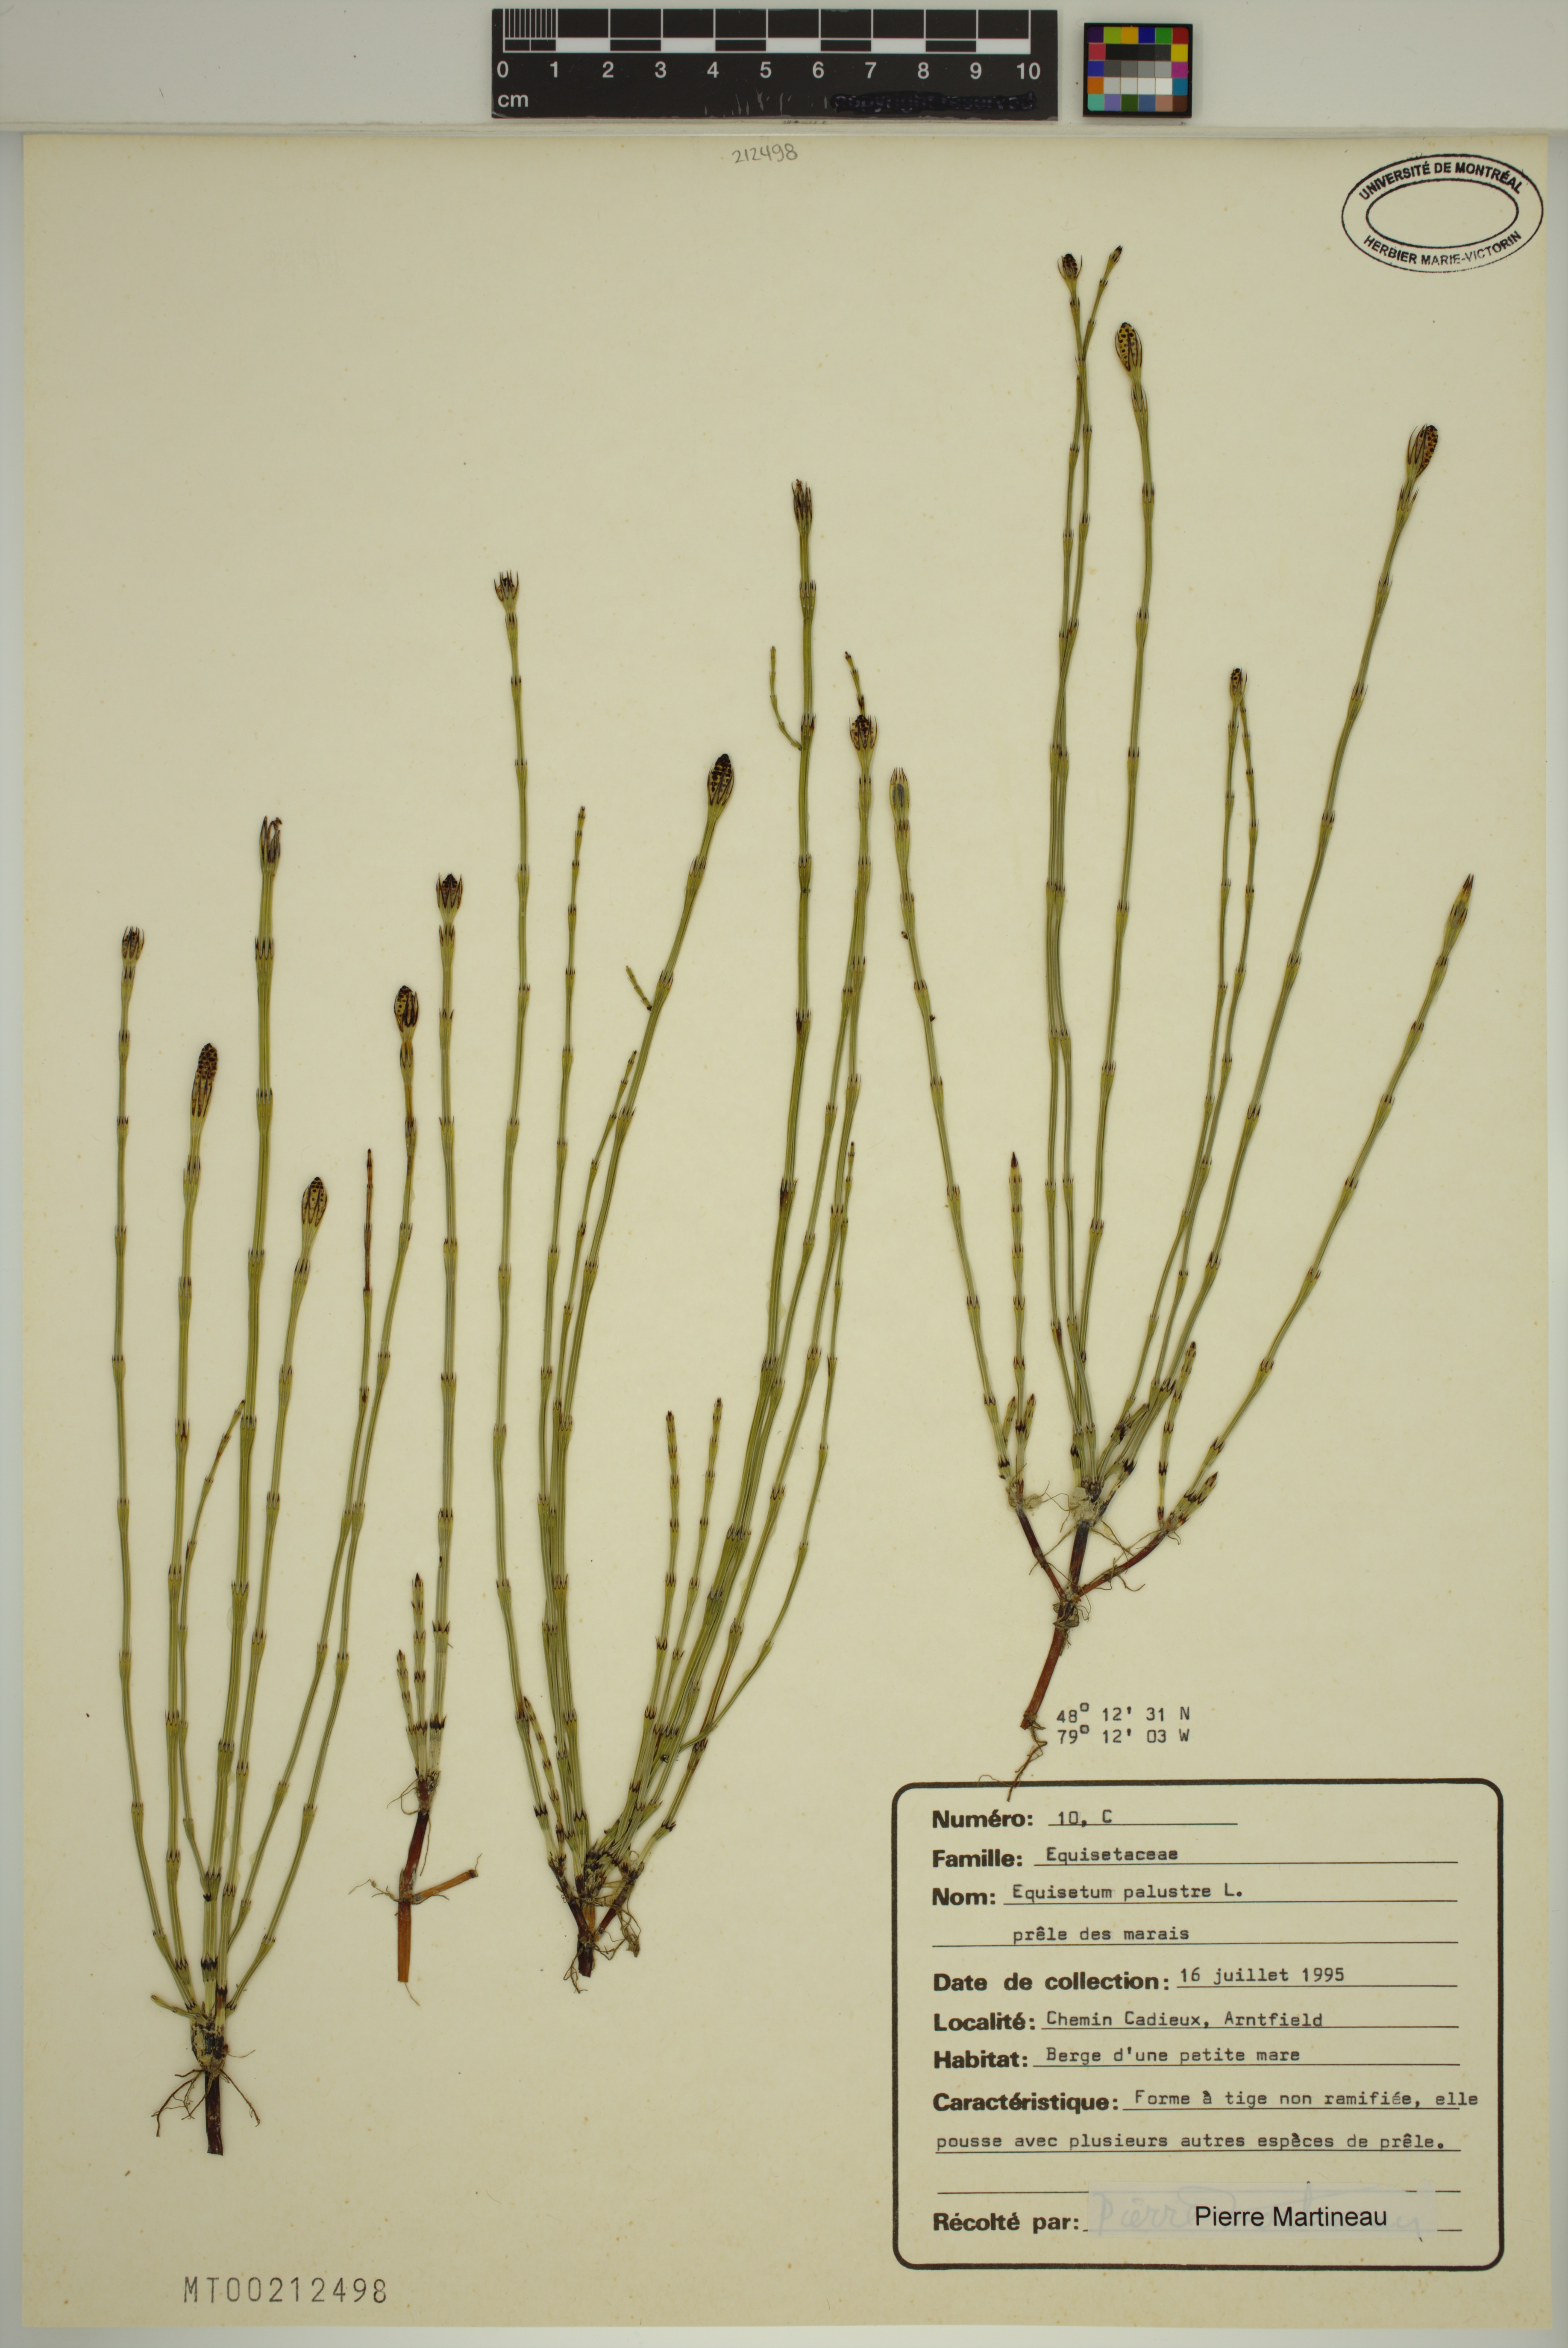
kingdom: Plantae
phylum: Tracheophyta
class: Polypodiopsida
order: Equisetales
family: Equisetaceae
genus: Equisetum
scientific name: Equisetum palustre
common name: Marsh horsetail
